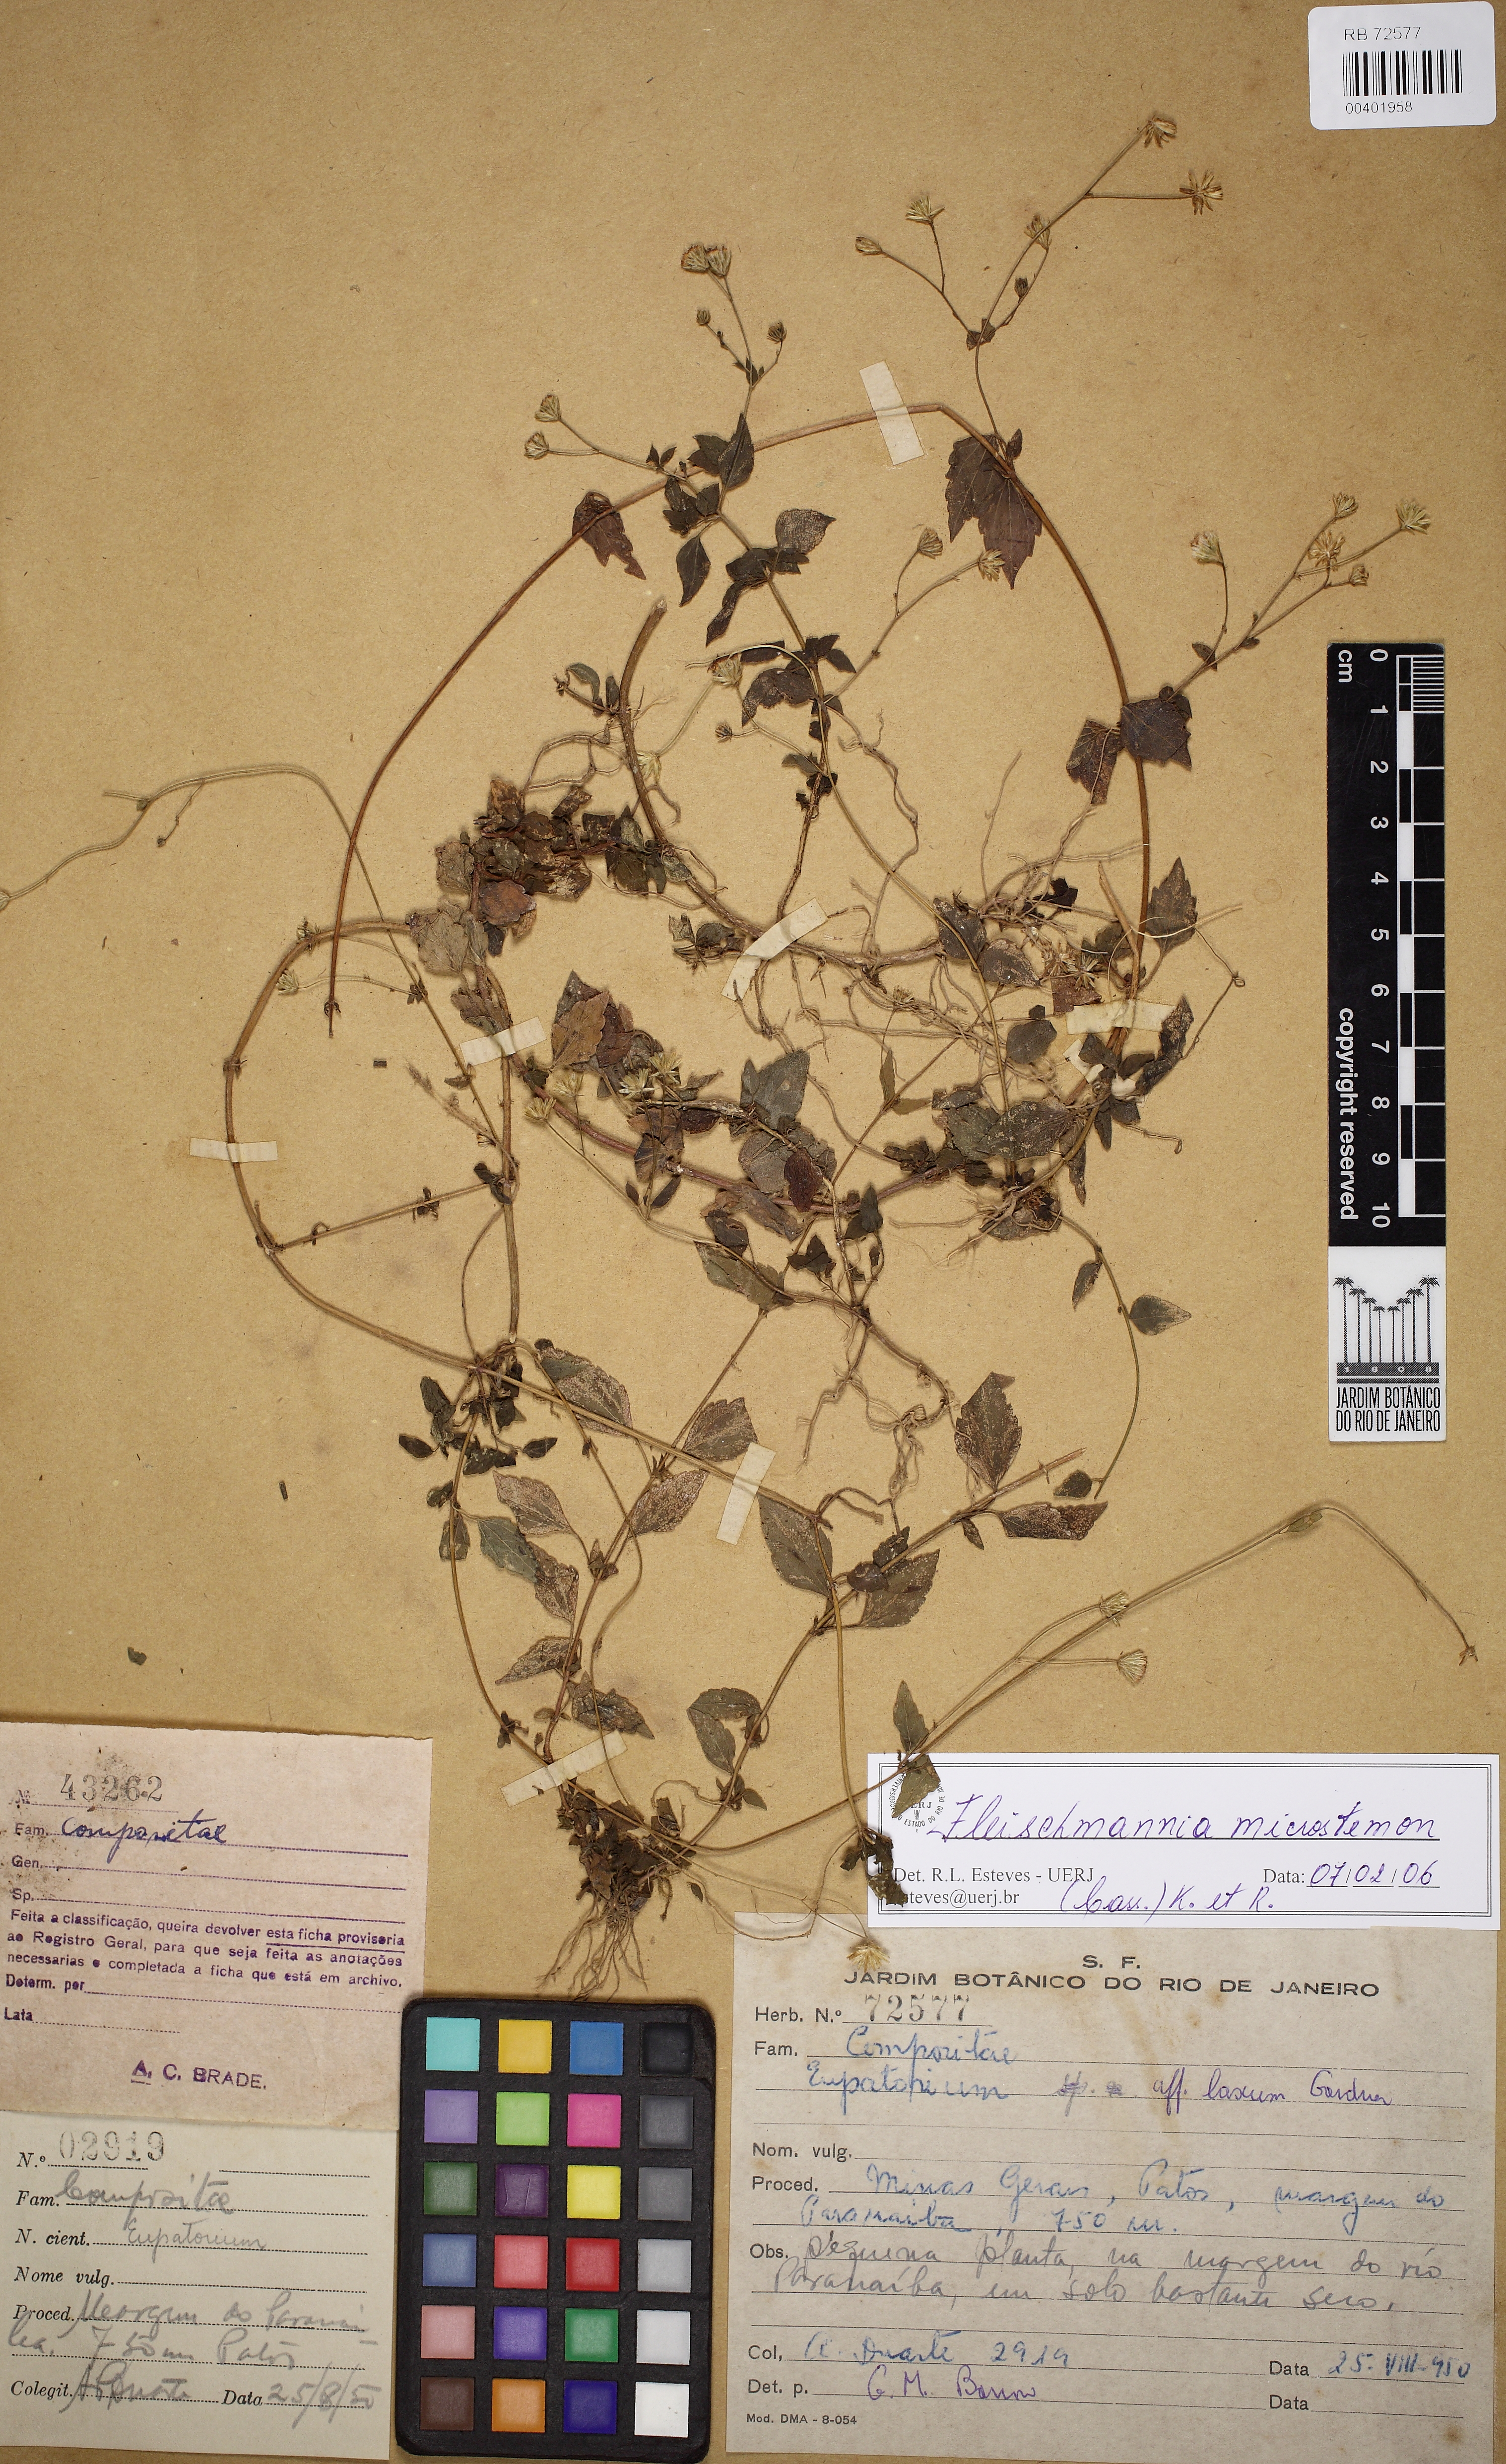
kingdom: Plantae
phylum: Tracheophyta
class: Magnoliopsida
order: Asterales
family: Asteraceae
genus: Fleischmannia
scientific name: Fleischmannia microstemon
